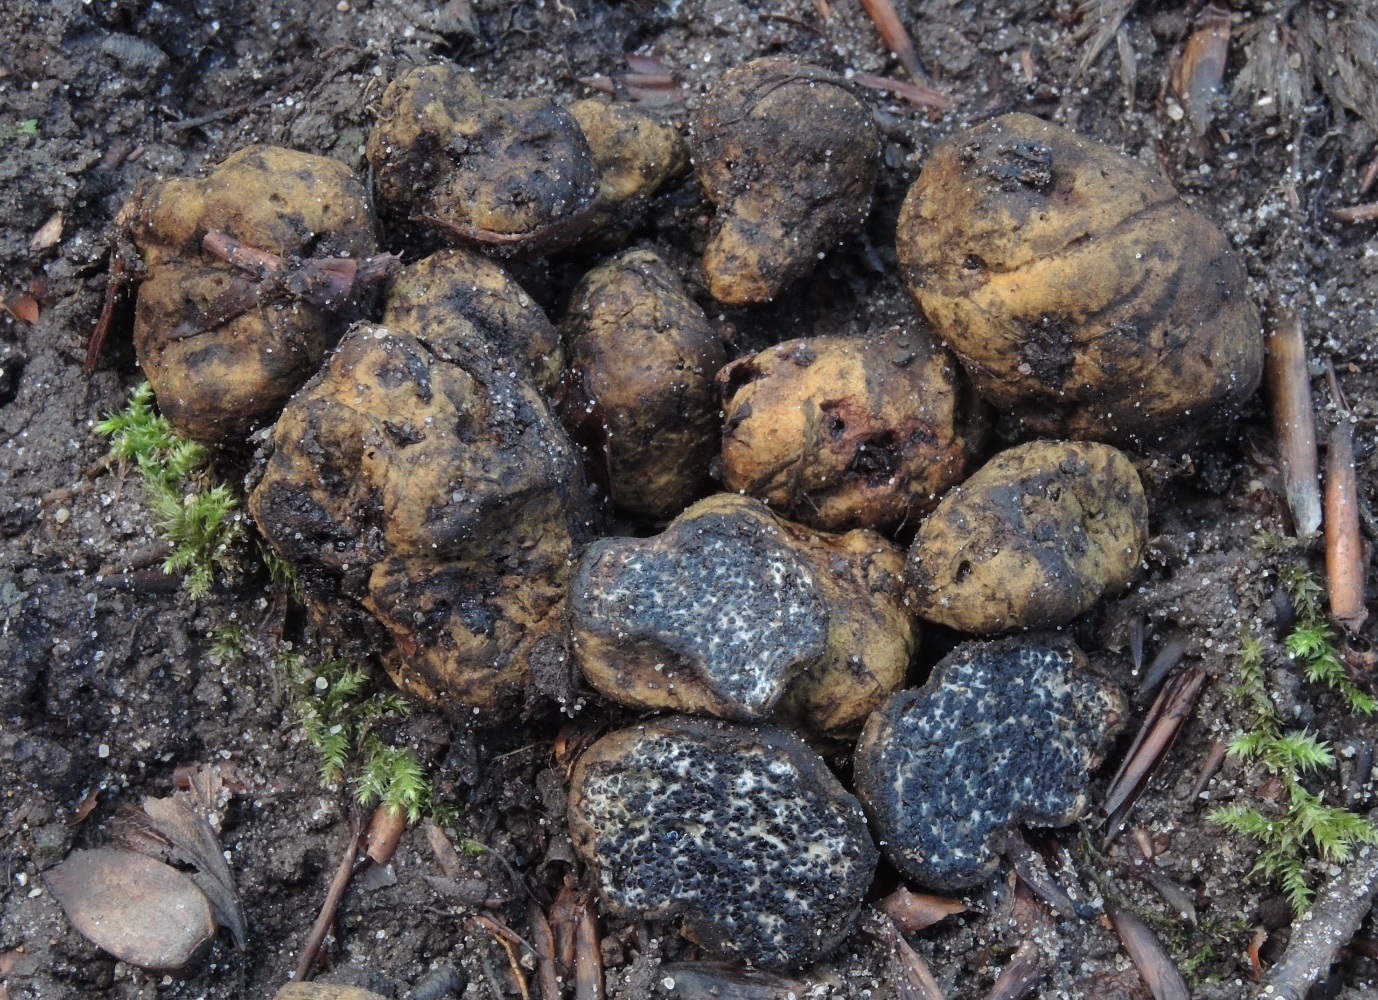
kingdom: Fungi
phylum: Basidiomycota
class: Agaricomycetes
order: Boletales
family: Paxillaceae
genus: Melanogaster
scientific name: Melanogaster broomeanus
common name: broget slimtrøffel
